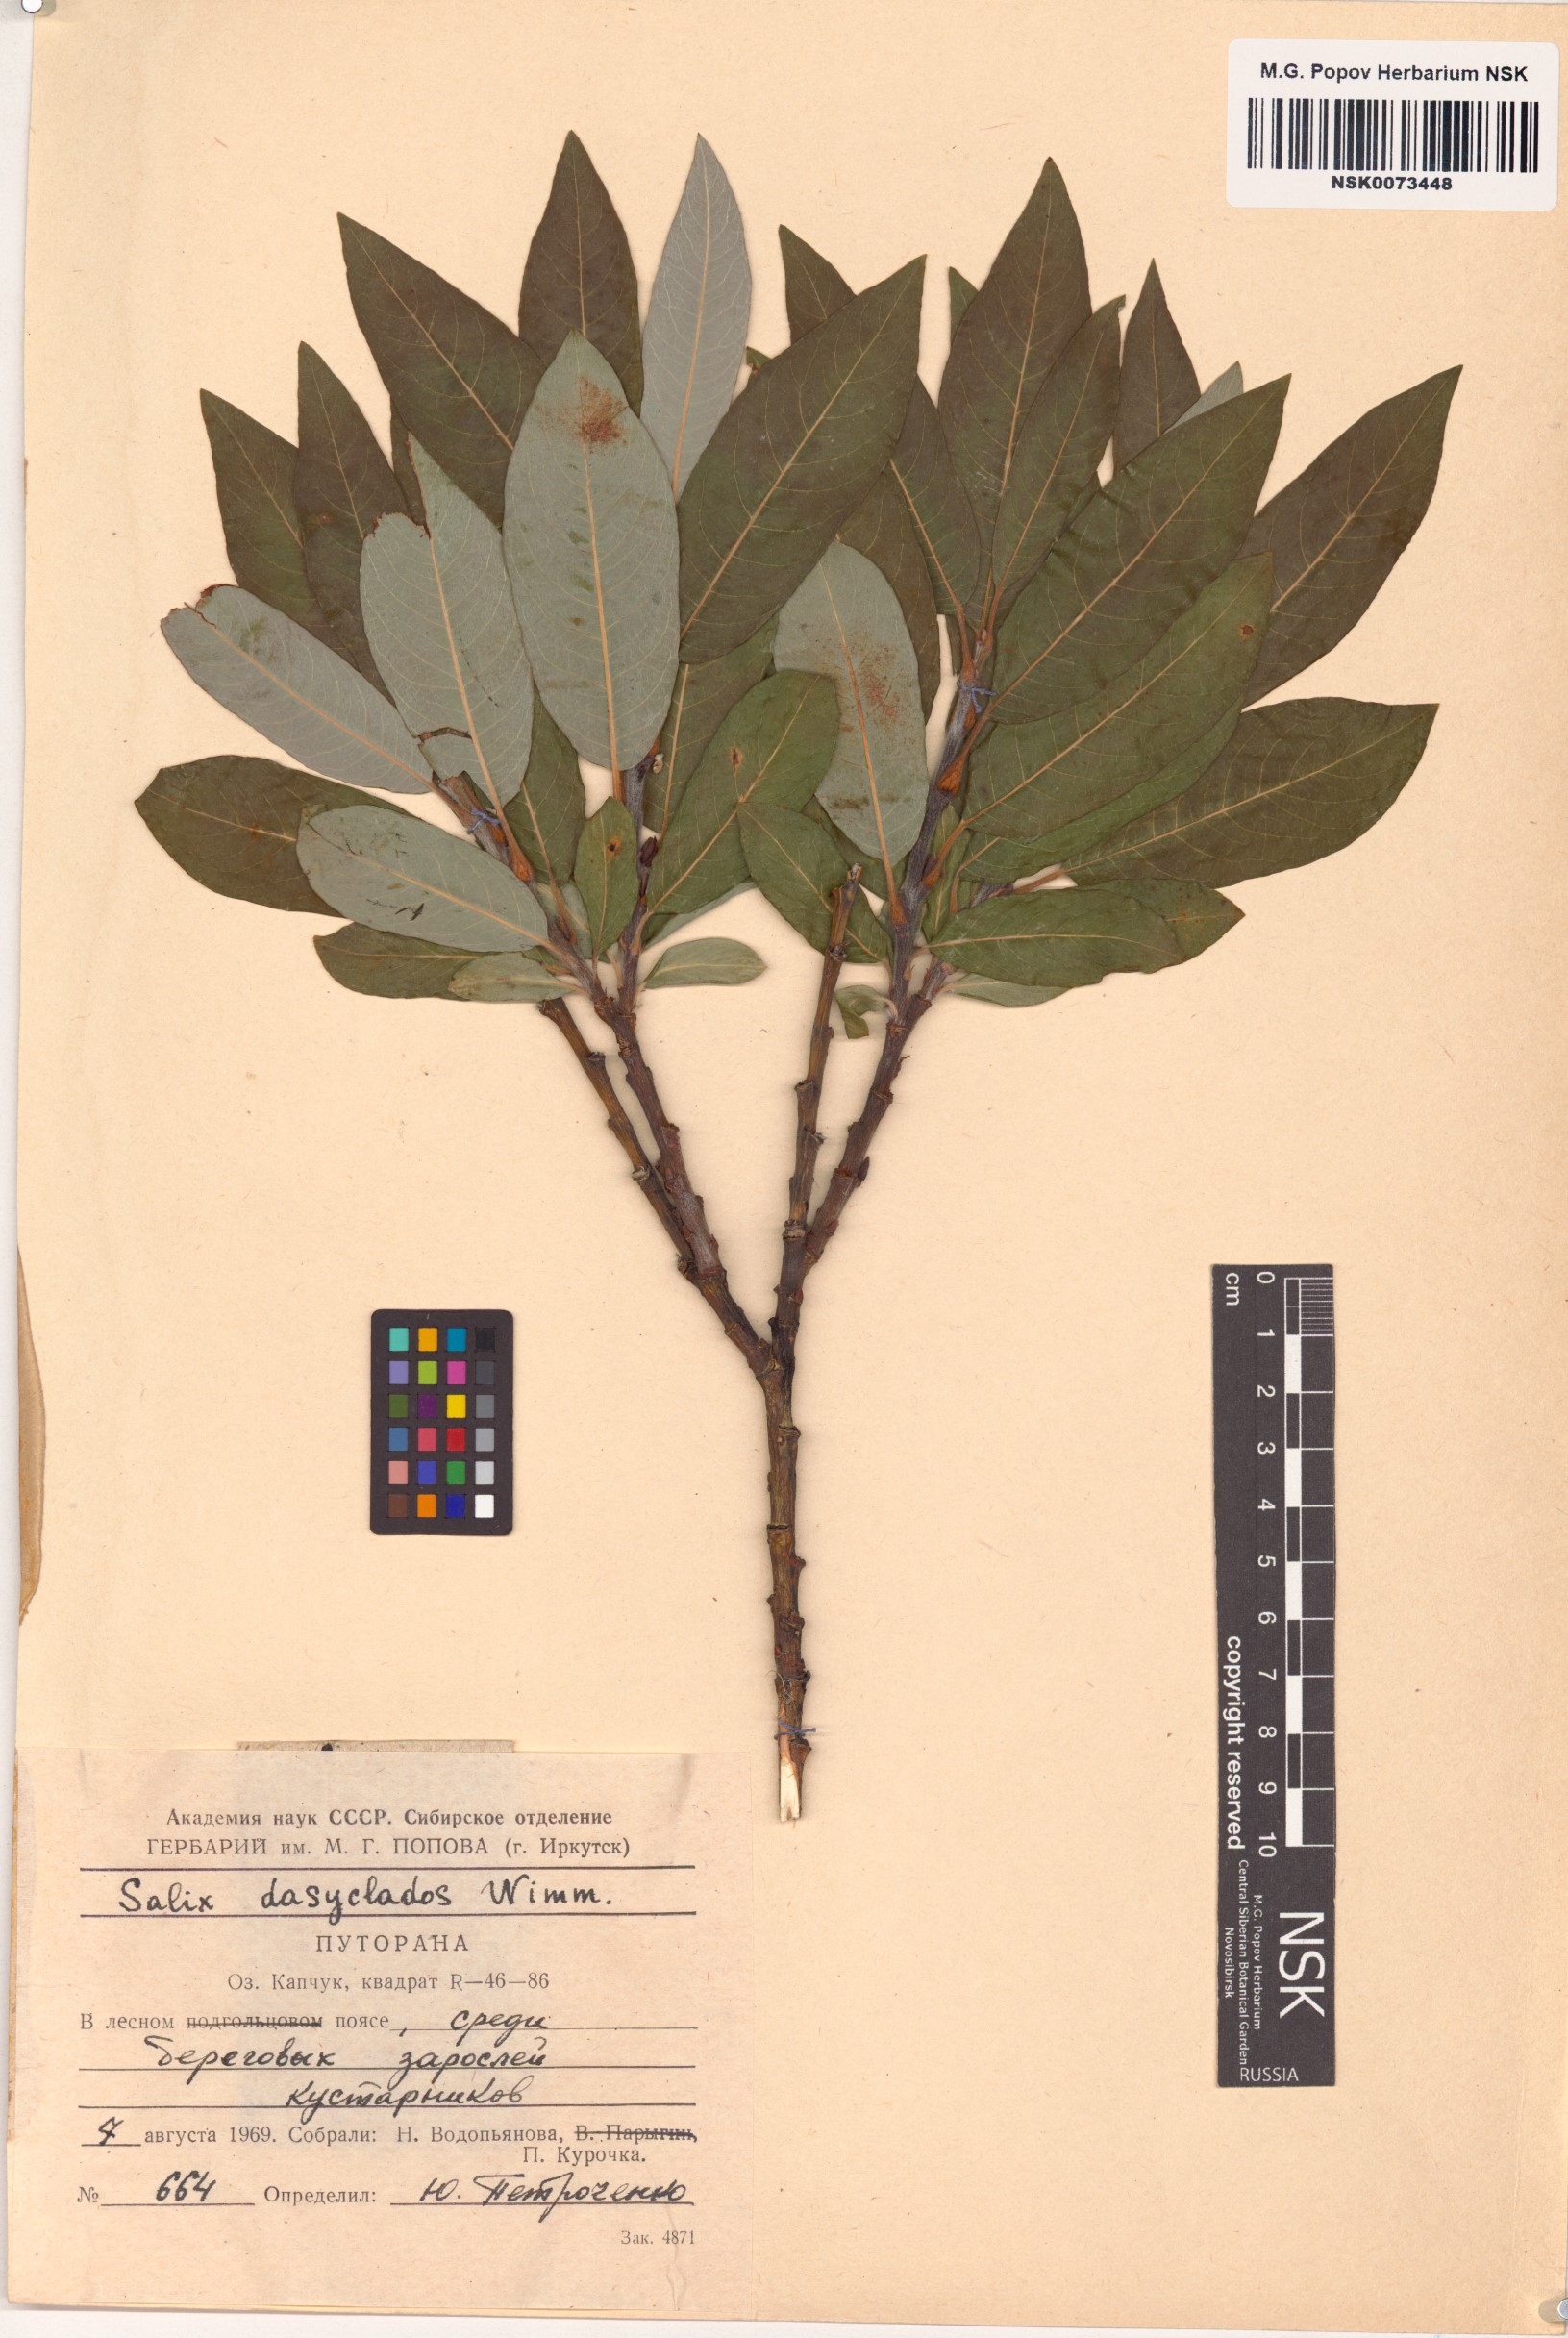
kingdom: Plantae
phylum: Tracheophyta
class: Magnoliopsida
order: Malpighiales
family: Salicaceae
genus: Salix
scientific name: Salix gmelinii
